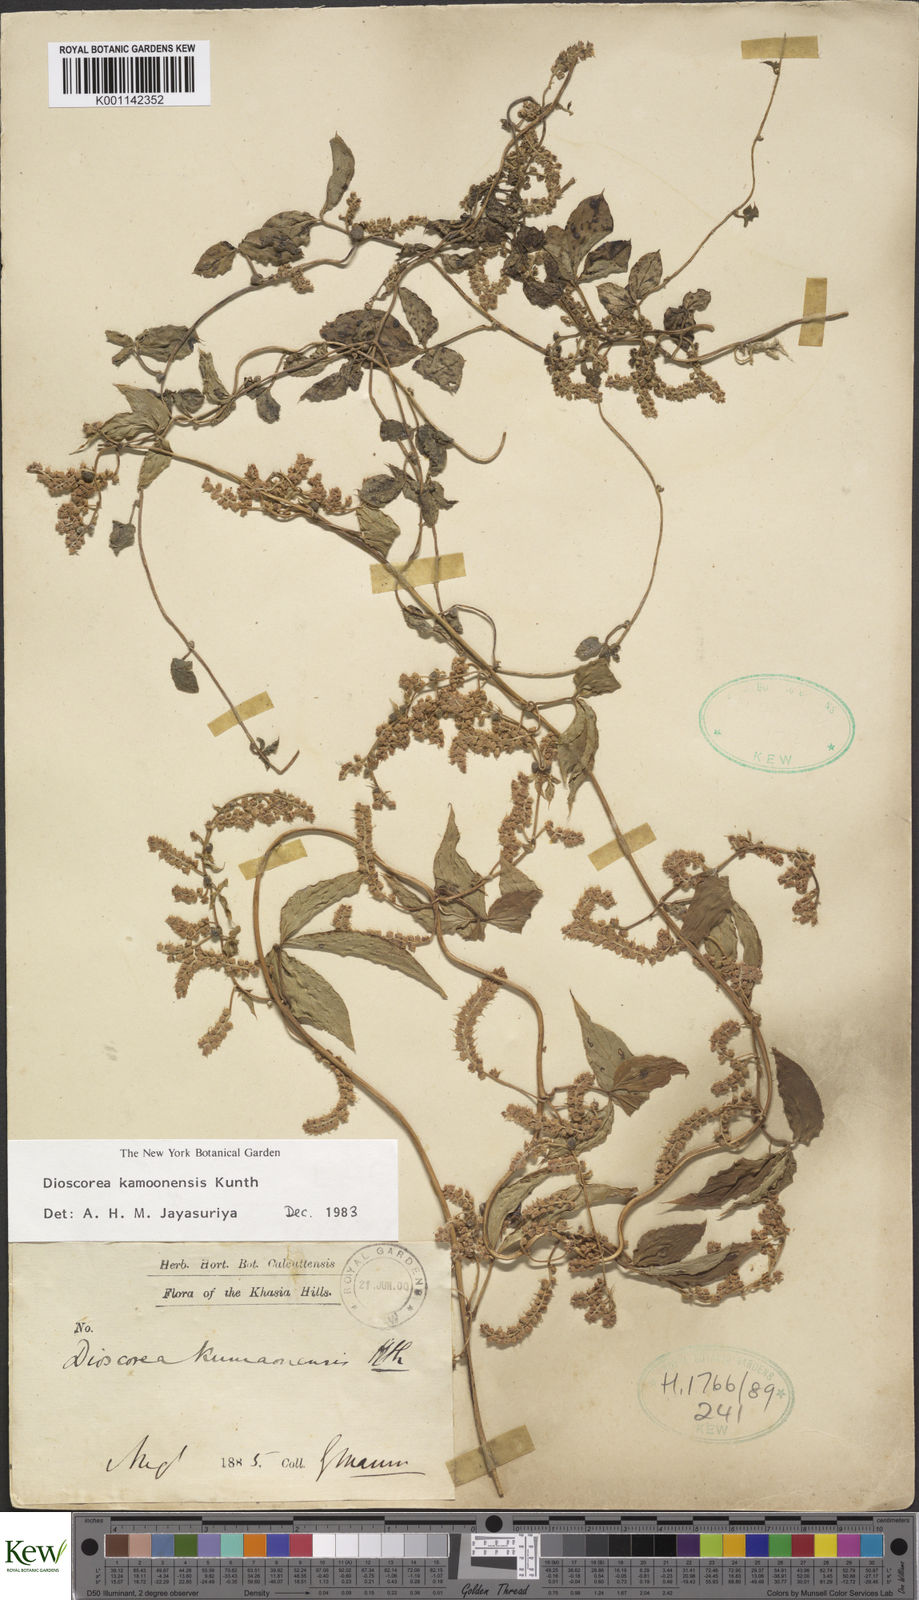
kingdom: Plantae
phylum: Tracheophyta
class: Liliopsida
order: Dioscoreales
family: Dioscoreaceae
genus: Dioscorea
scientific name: Dioscorea kamoonensis
